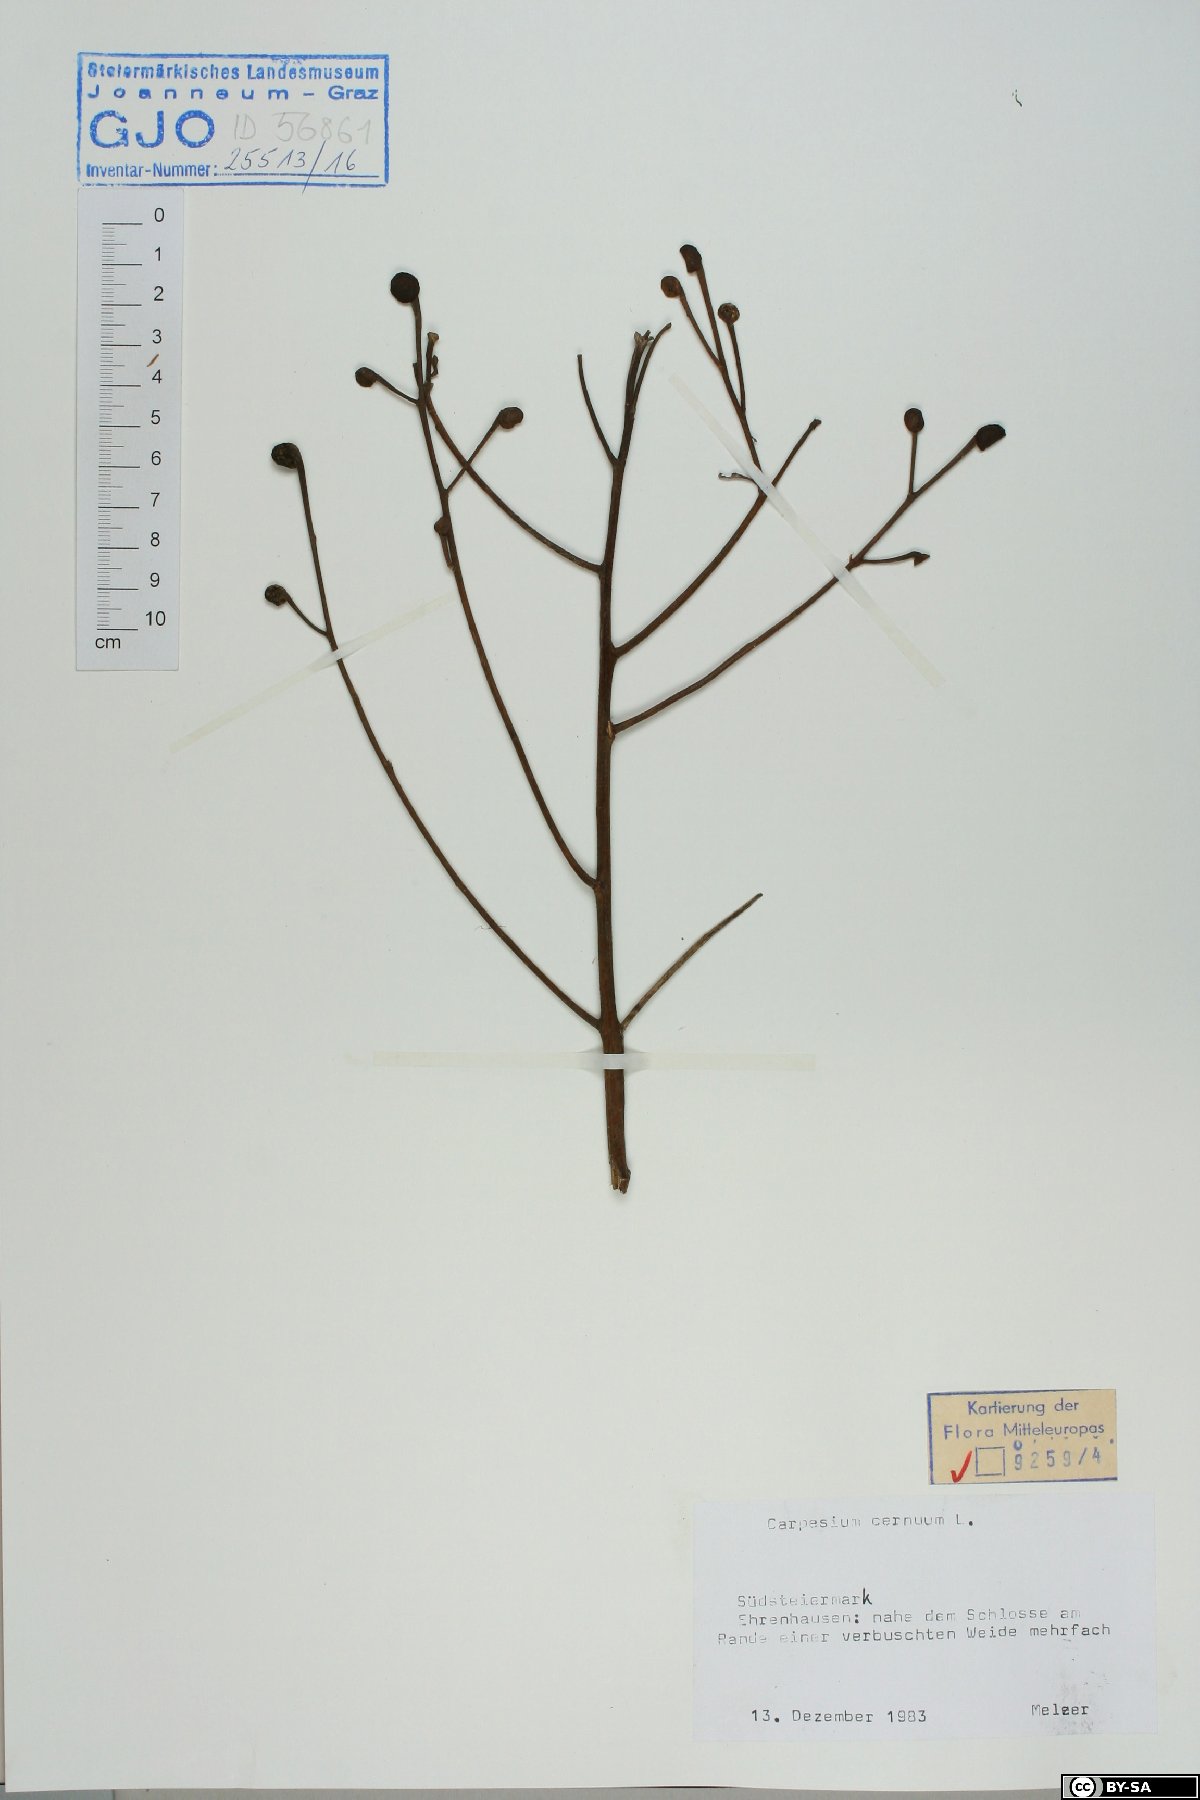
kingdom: Plantae
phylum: Tracheophyta
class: Magnoliopsida
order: Asterales
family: Asteraceae
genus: Carpesium
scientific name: Carpesium cernuum
